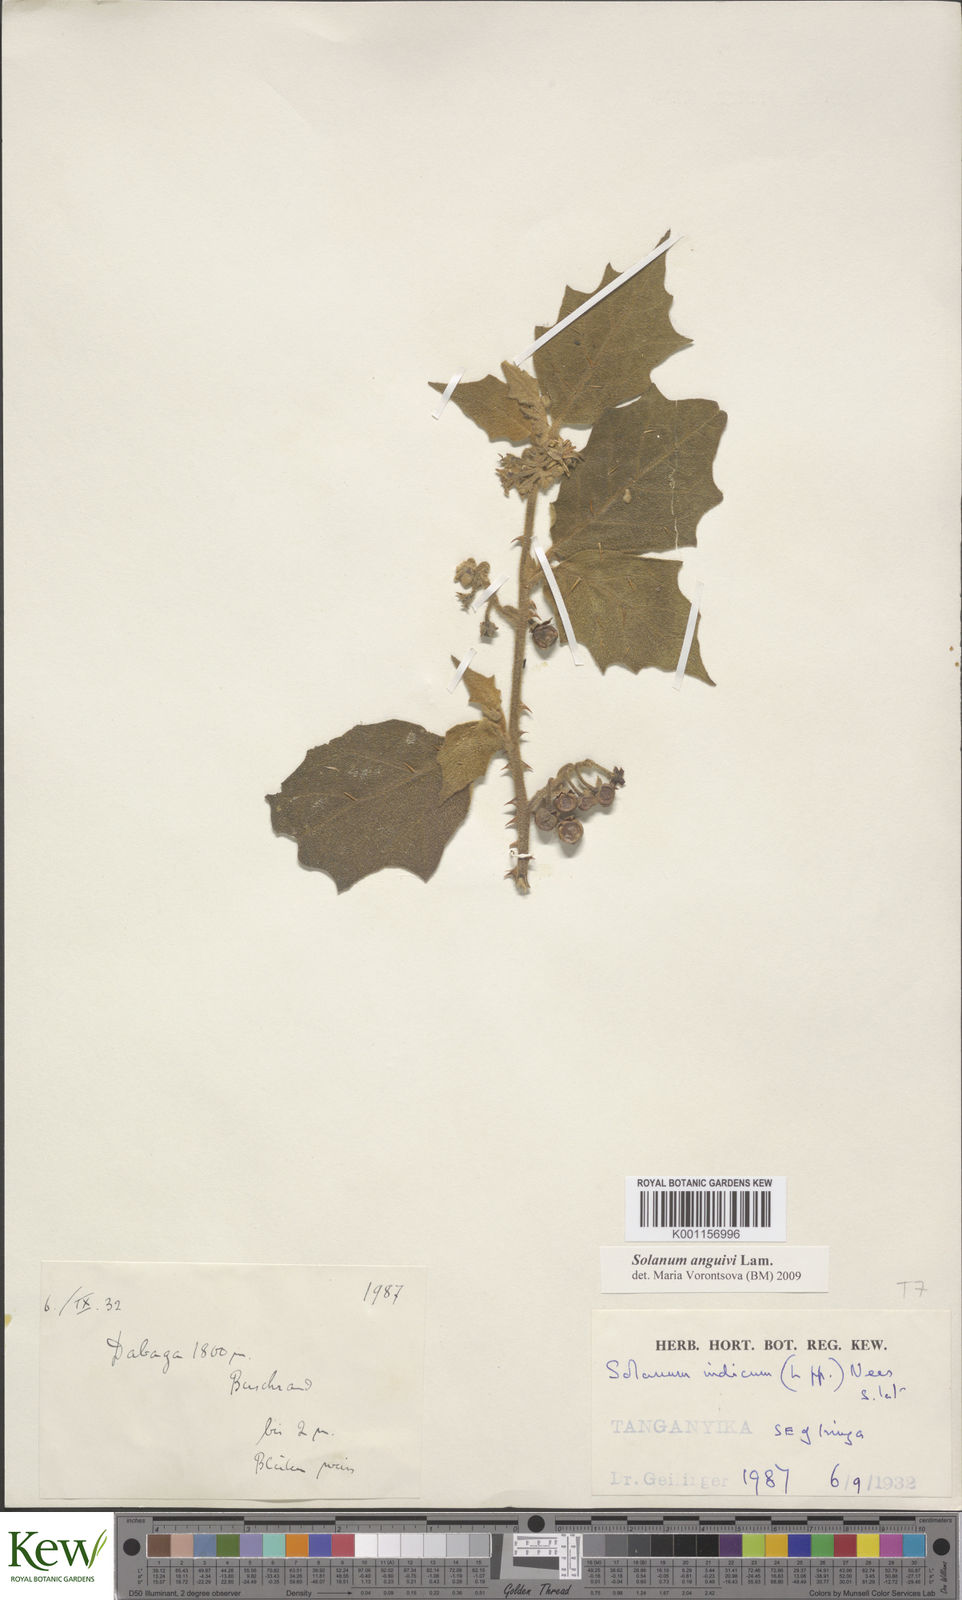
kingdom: Plantae
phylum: Tracheophyta
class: Magnoliopsida
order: Solanales
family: Solanaceae
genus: Solanum
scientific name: Solanum anguivi
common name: Forest bitterberry
